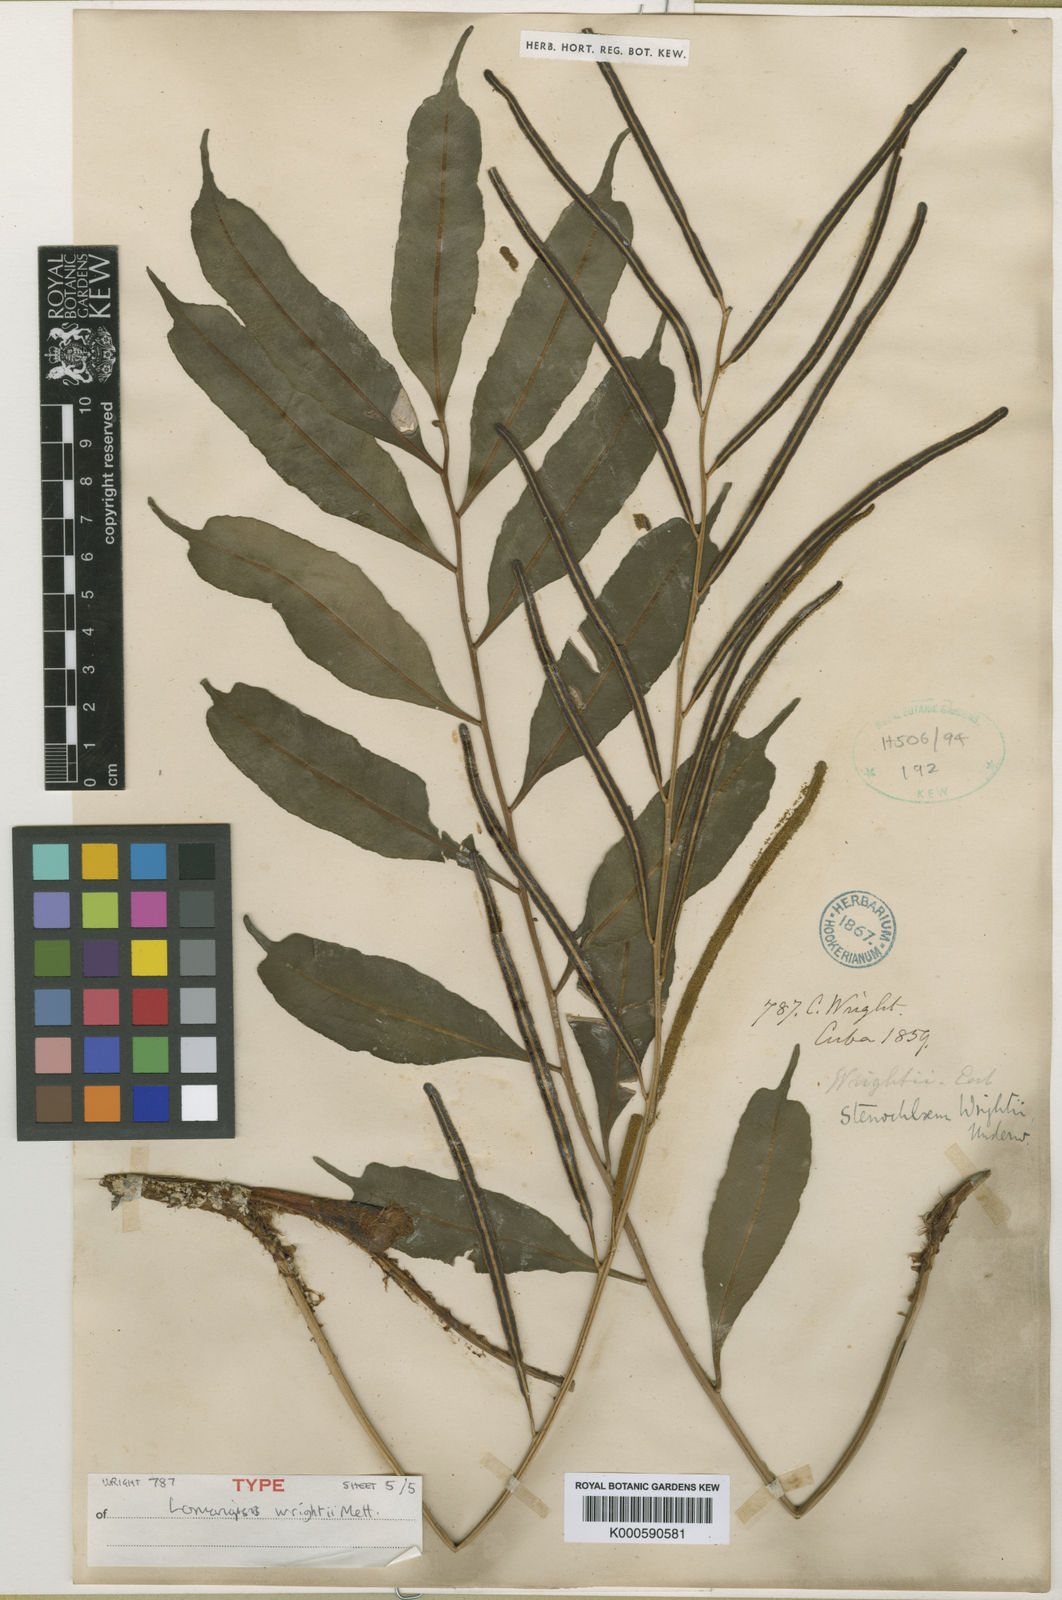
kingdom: Plantae
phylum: Tracheophyta
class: Polypodiopsida
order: Polypodiales
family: Lomariopsidaceae
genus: Lomariopsis
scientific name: Lomariopsis
